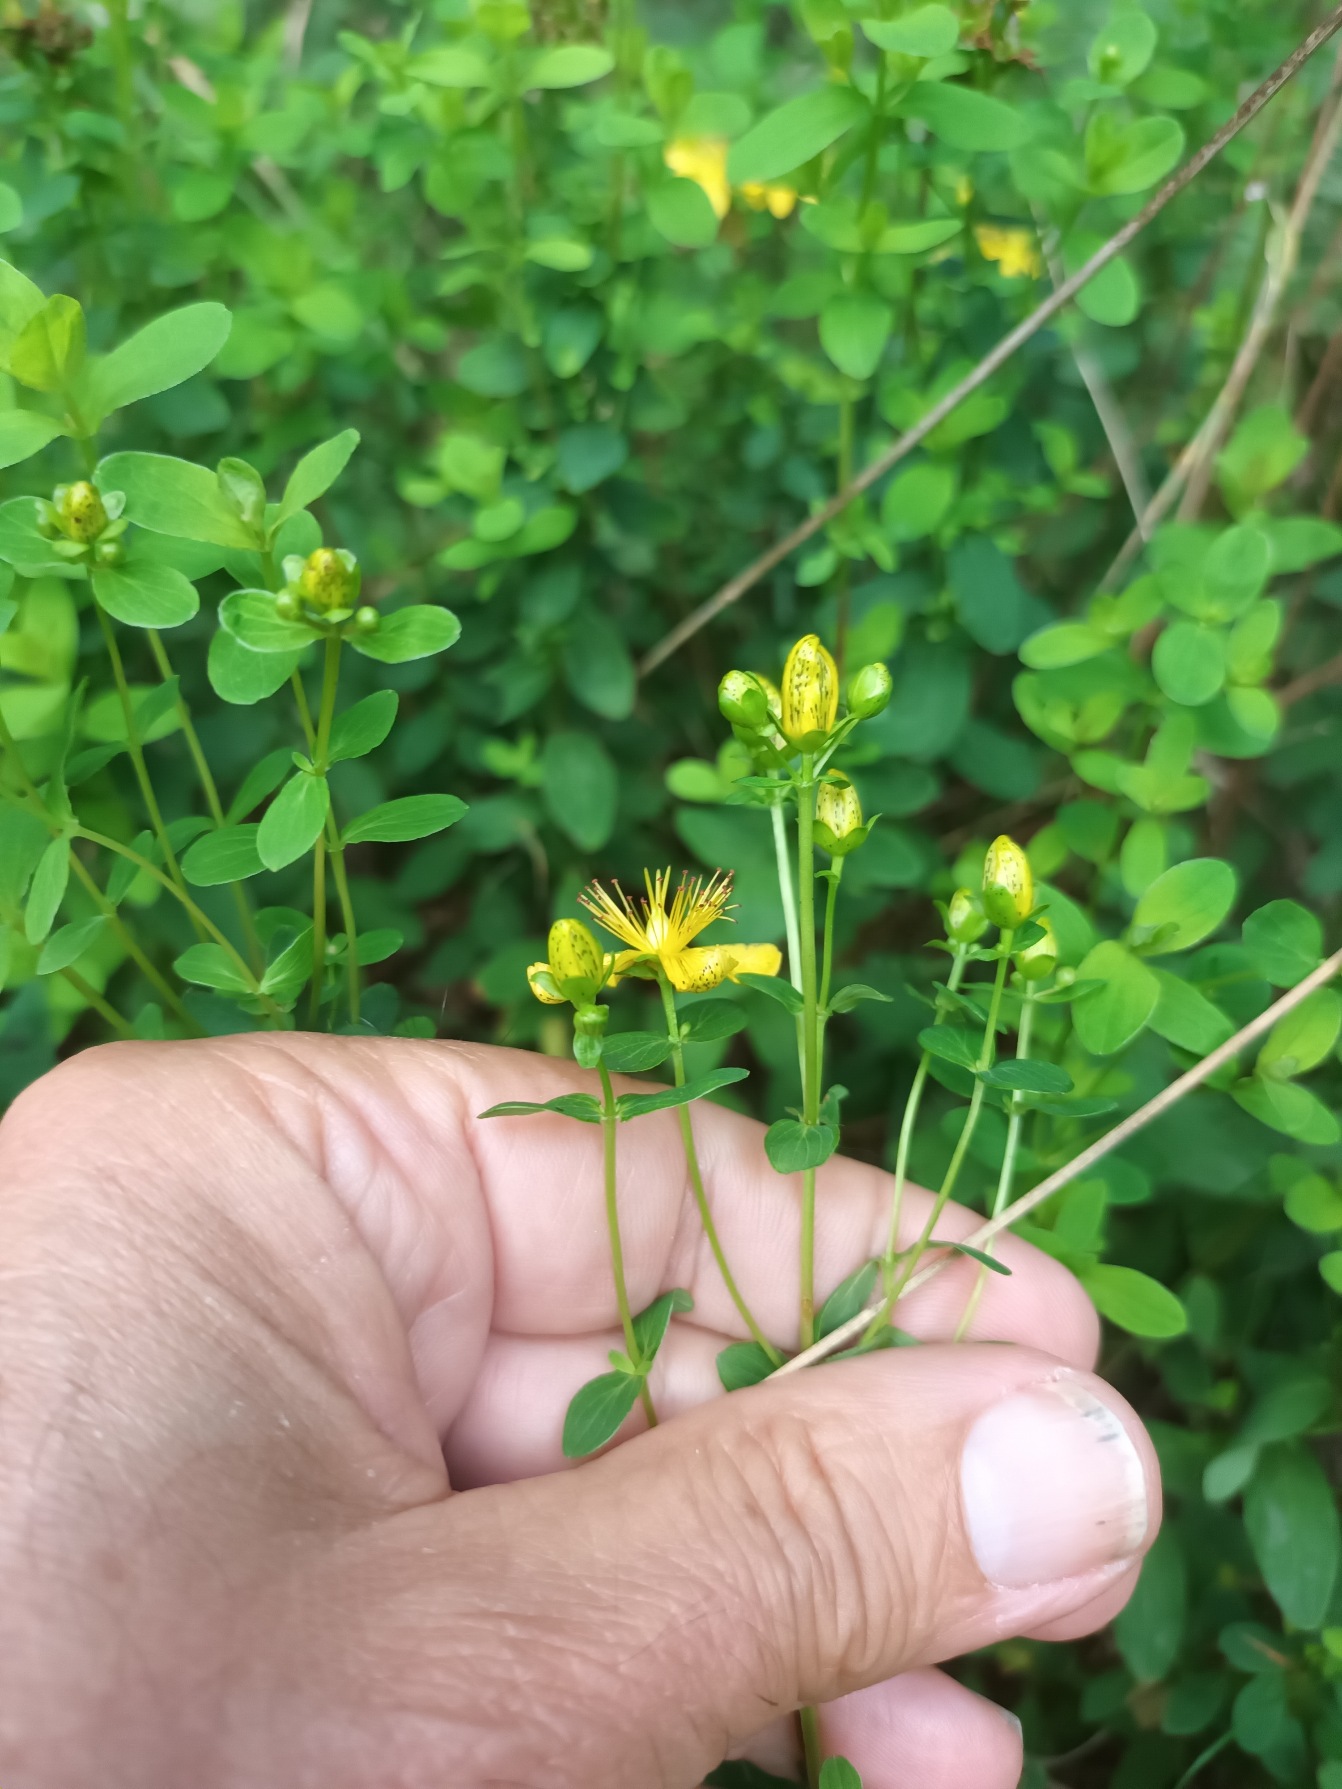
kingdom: Plantae
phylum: Tracheophyta
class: Magnoliopsida
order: Malpighiales
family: Hypericaceae
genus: Hypericum
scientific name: Hypericum maculatum
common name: Kantet perikon
